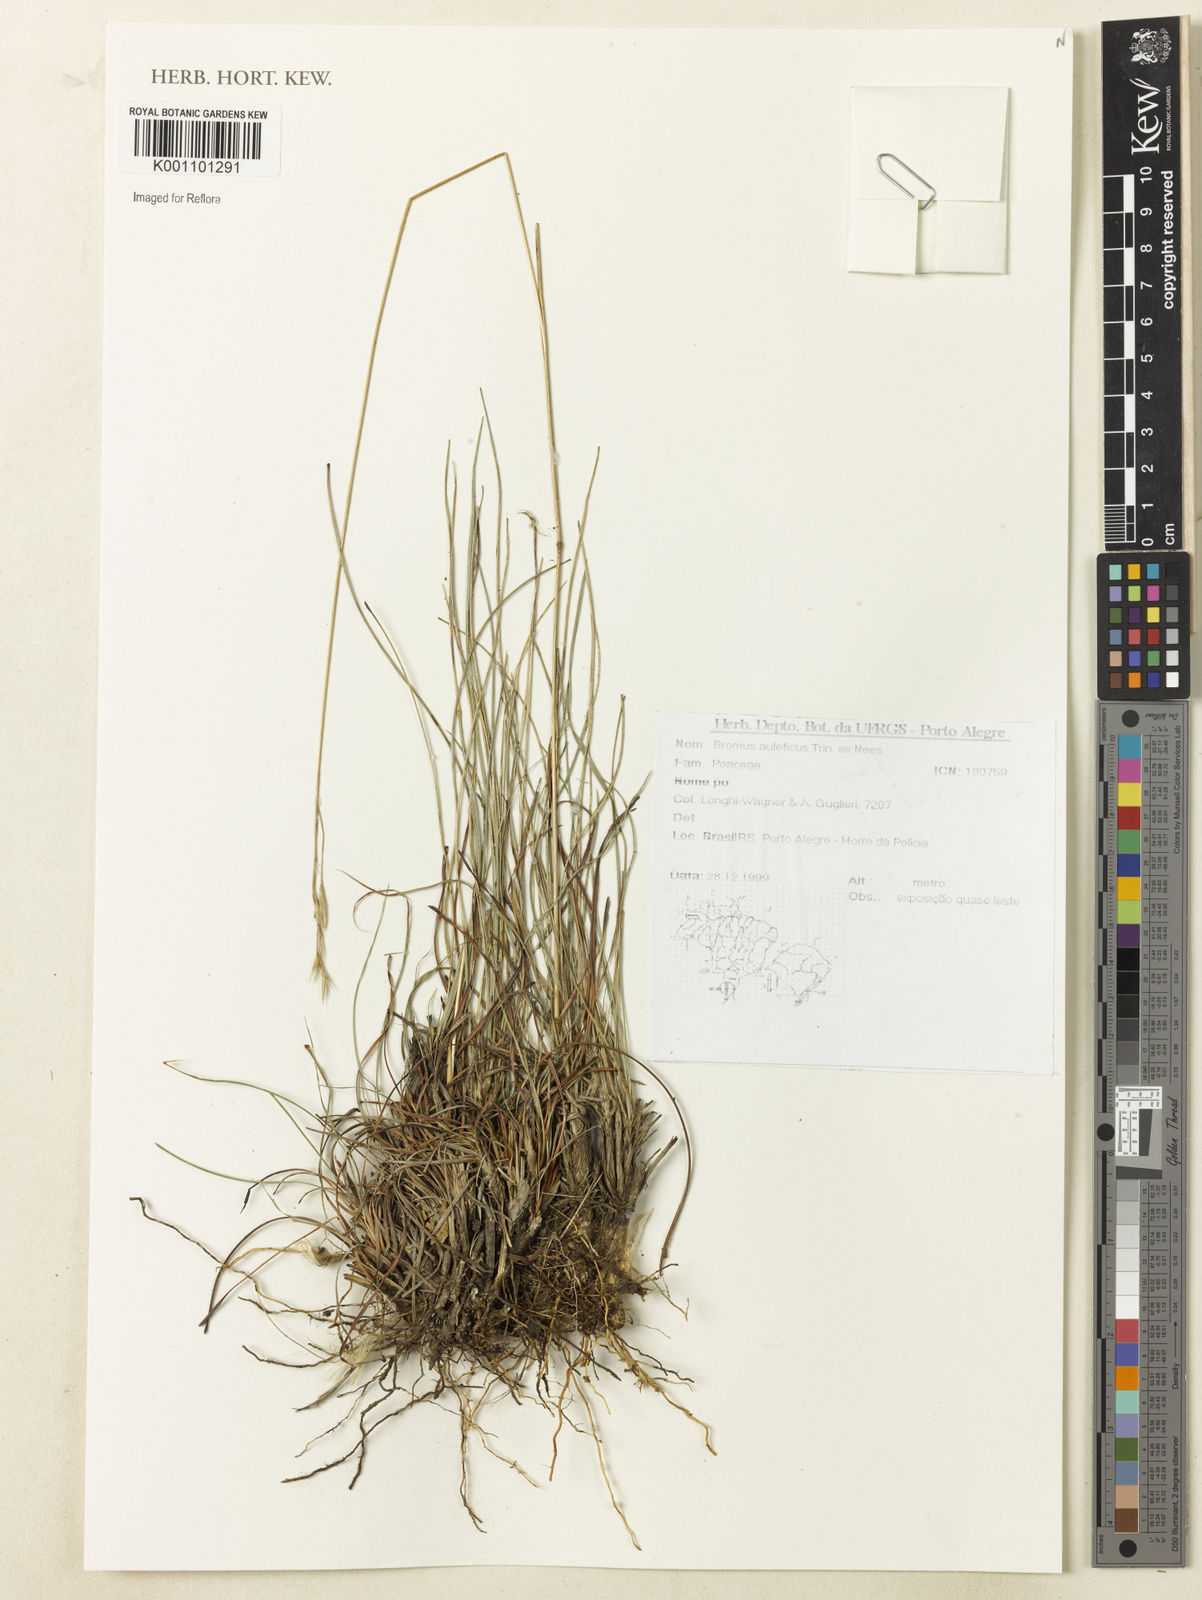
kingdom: Plantae
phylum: Tracheophyta
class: Liliopsida
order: Poales
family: Poaceae
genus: Bromus
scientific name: Bromus auleticus
